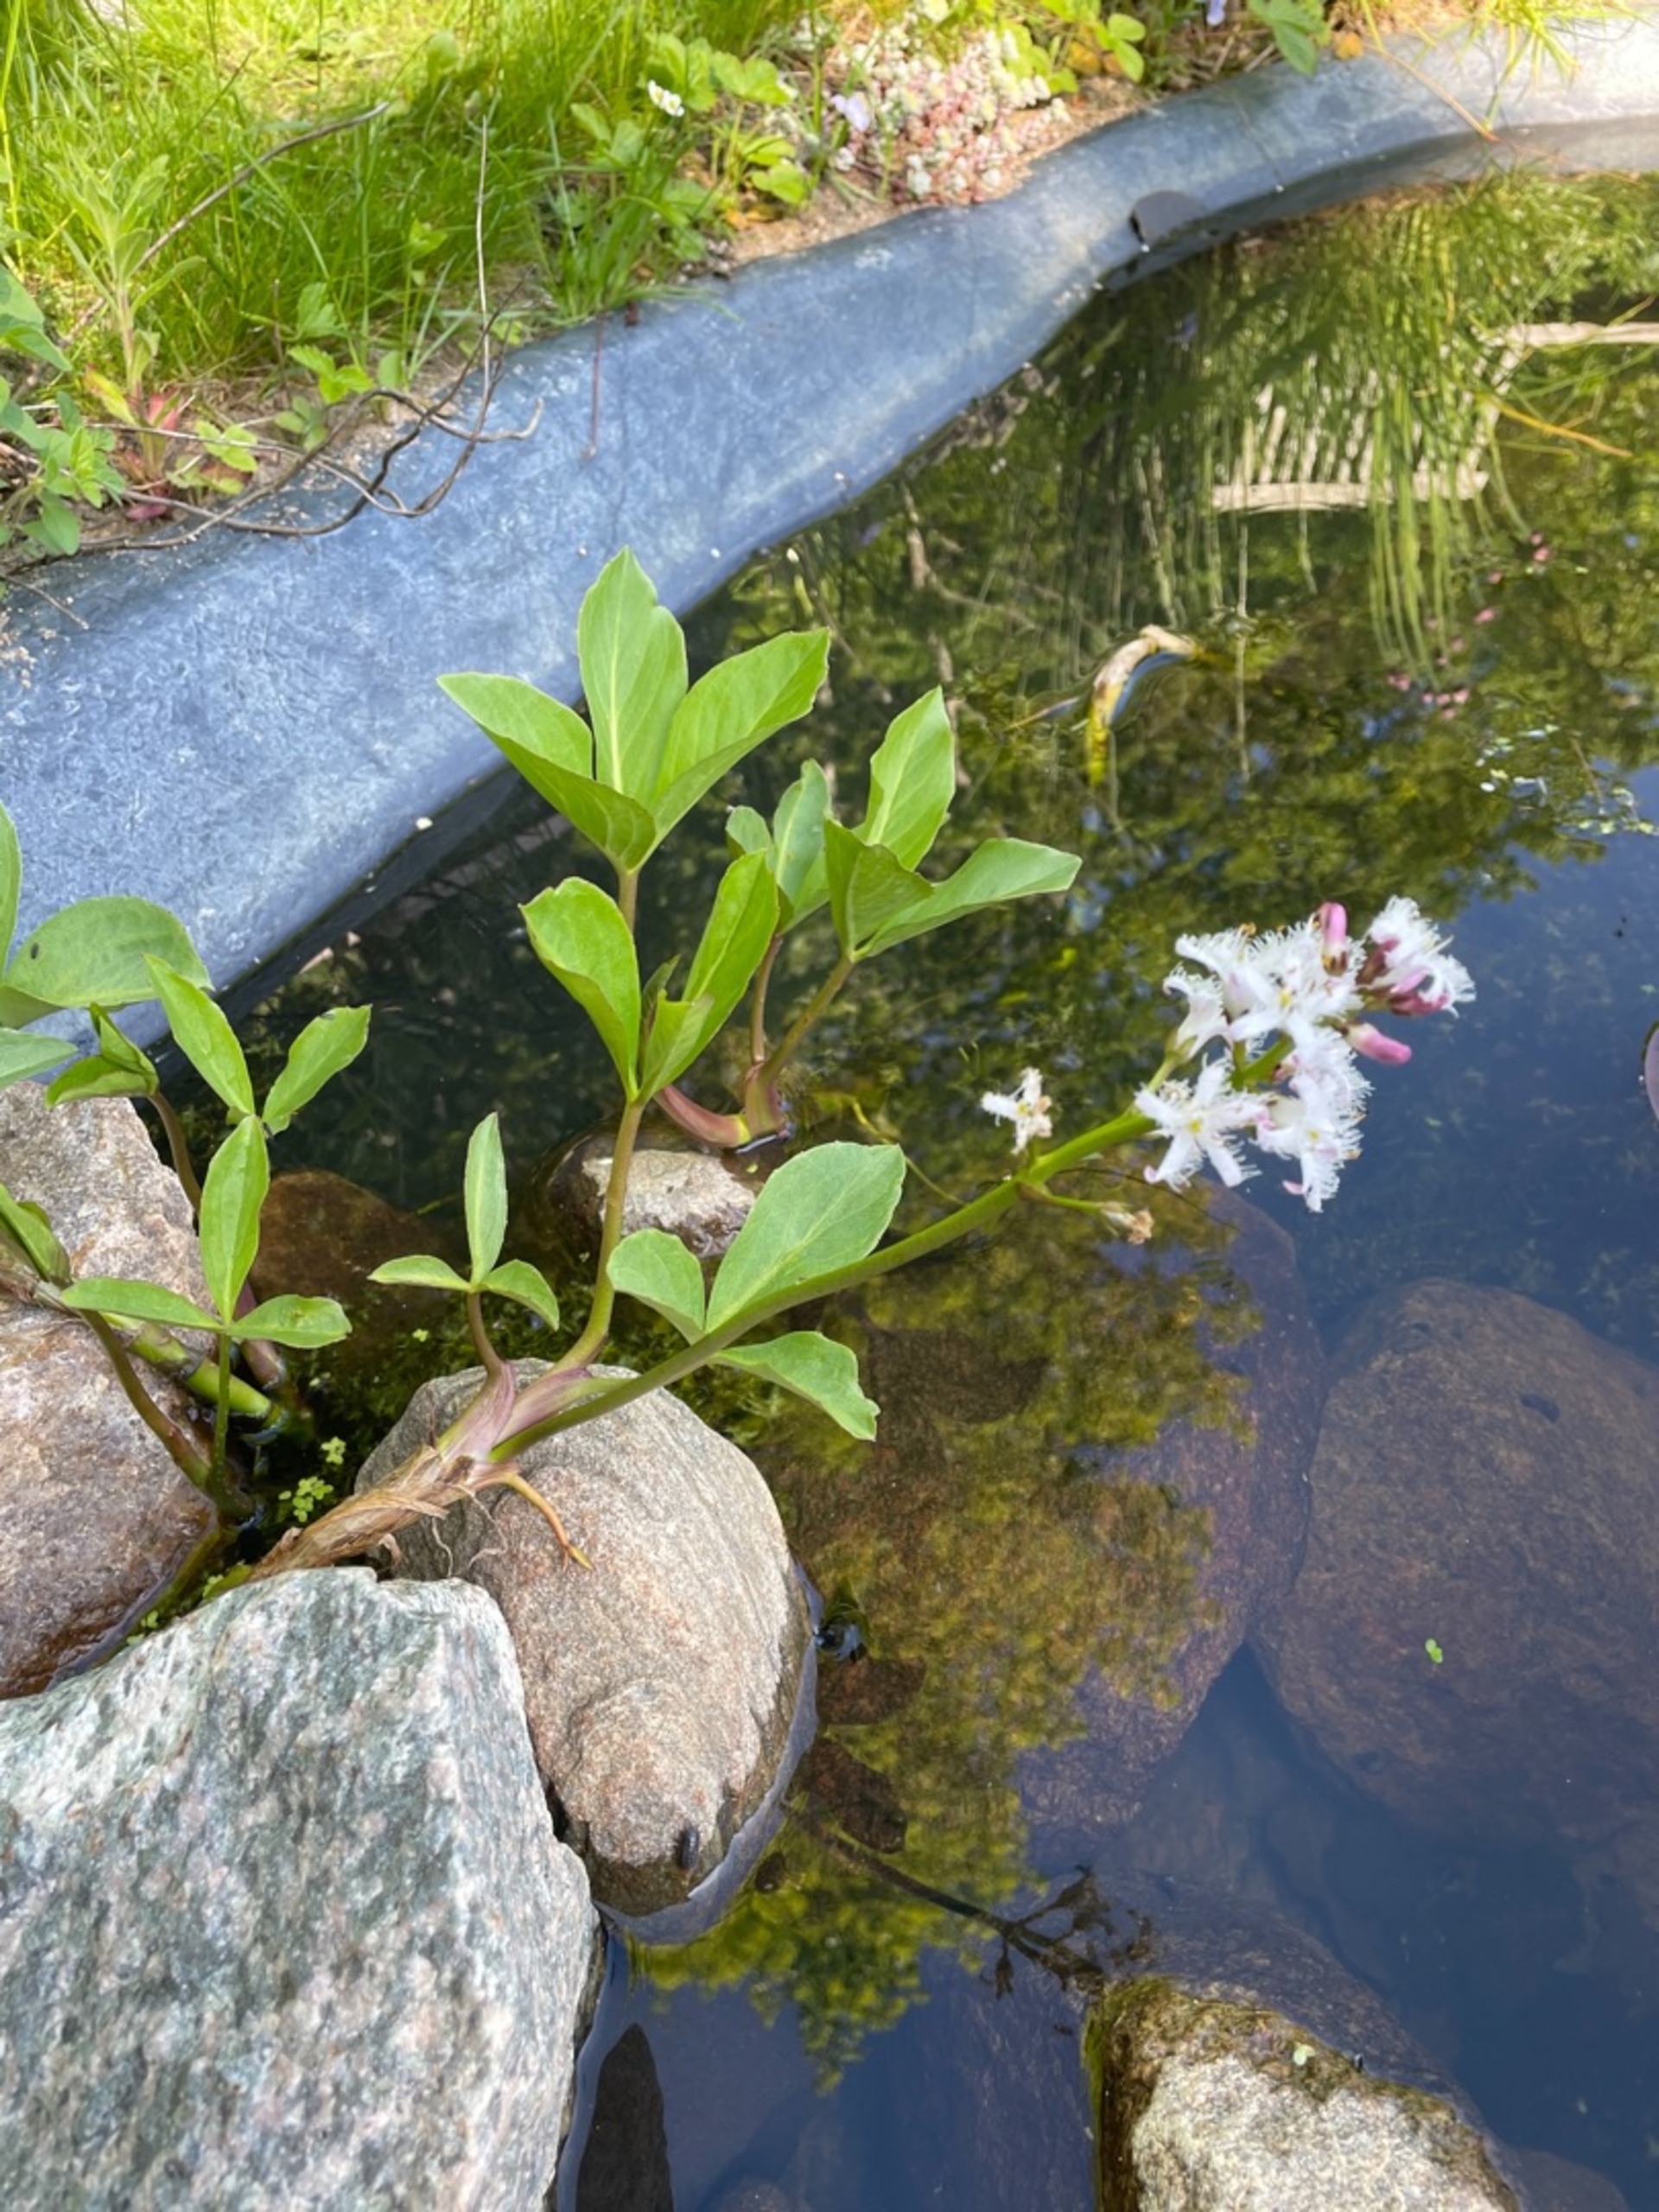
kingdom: Plantae
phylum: Tracheophyta
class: Magnoliopsida
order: Asterales
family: Menyanthaceae
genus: Menyanthes
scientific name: Menyanthes trifoliata
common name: Bukkeblad
